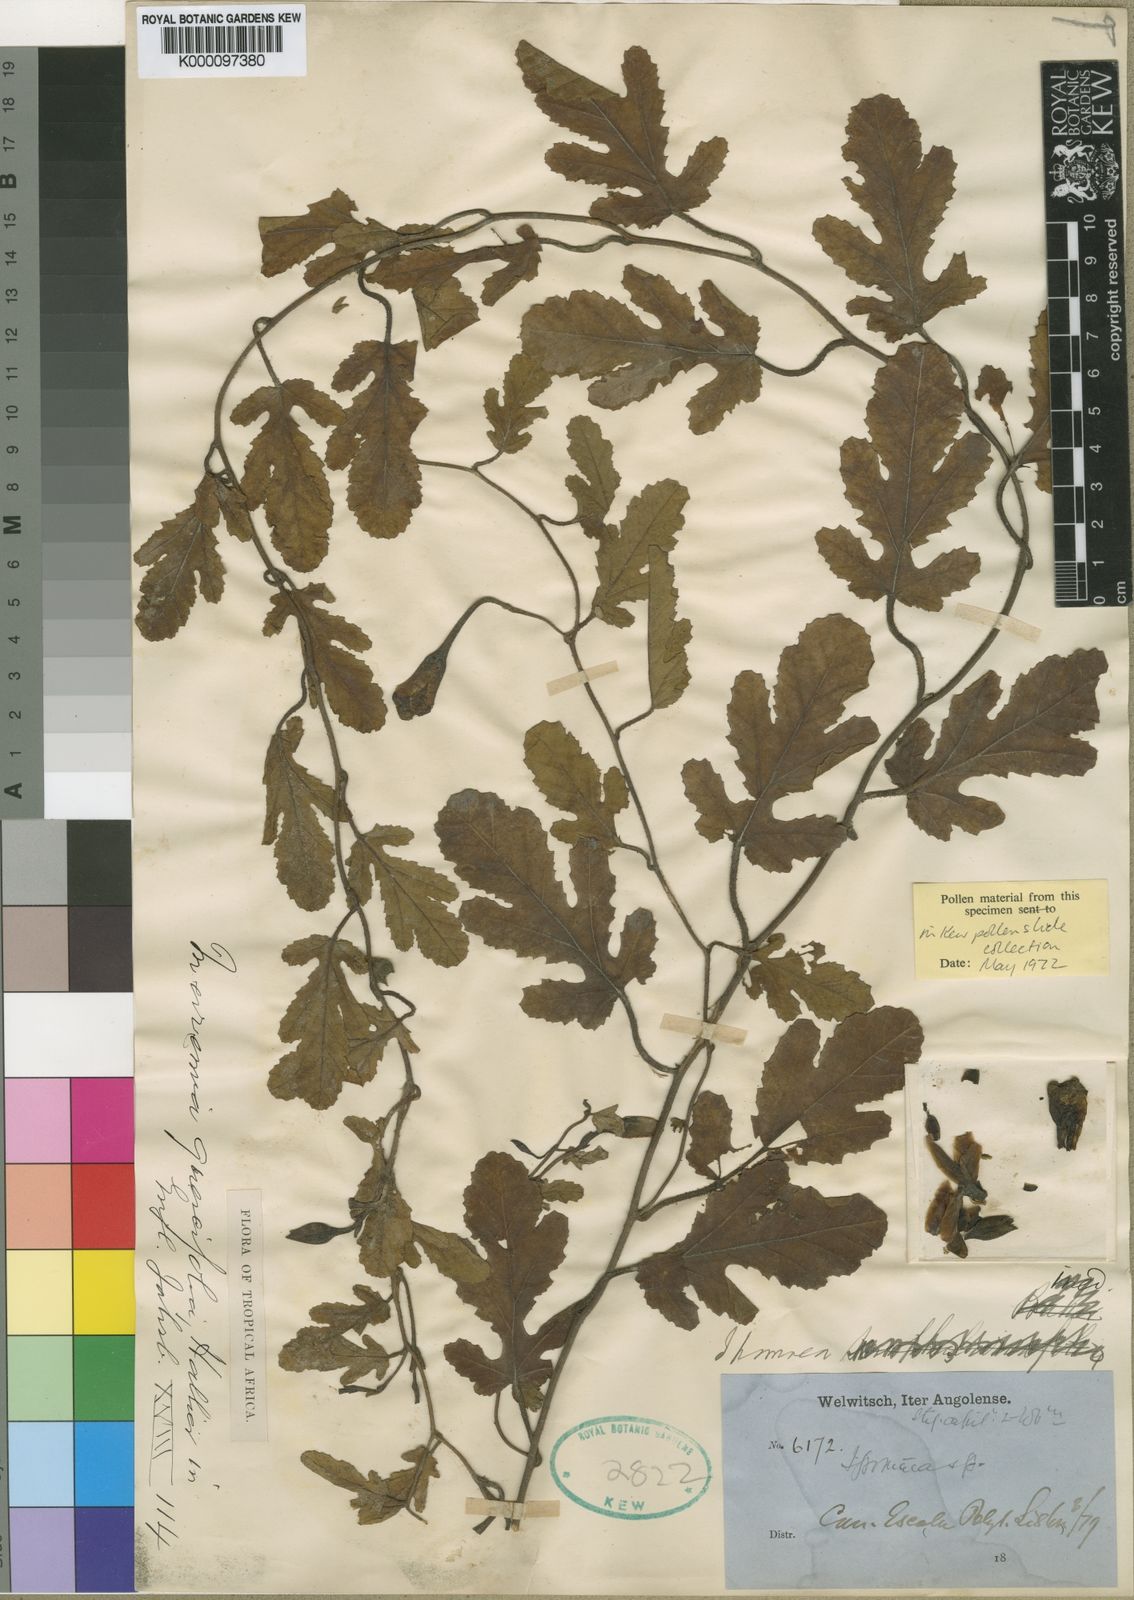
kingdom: Plantae
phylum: Tracheophyta
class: Magnoliopsida
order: Solanales
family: Convolvulaceae
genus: Distimake
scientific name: Distimake
